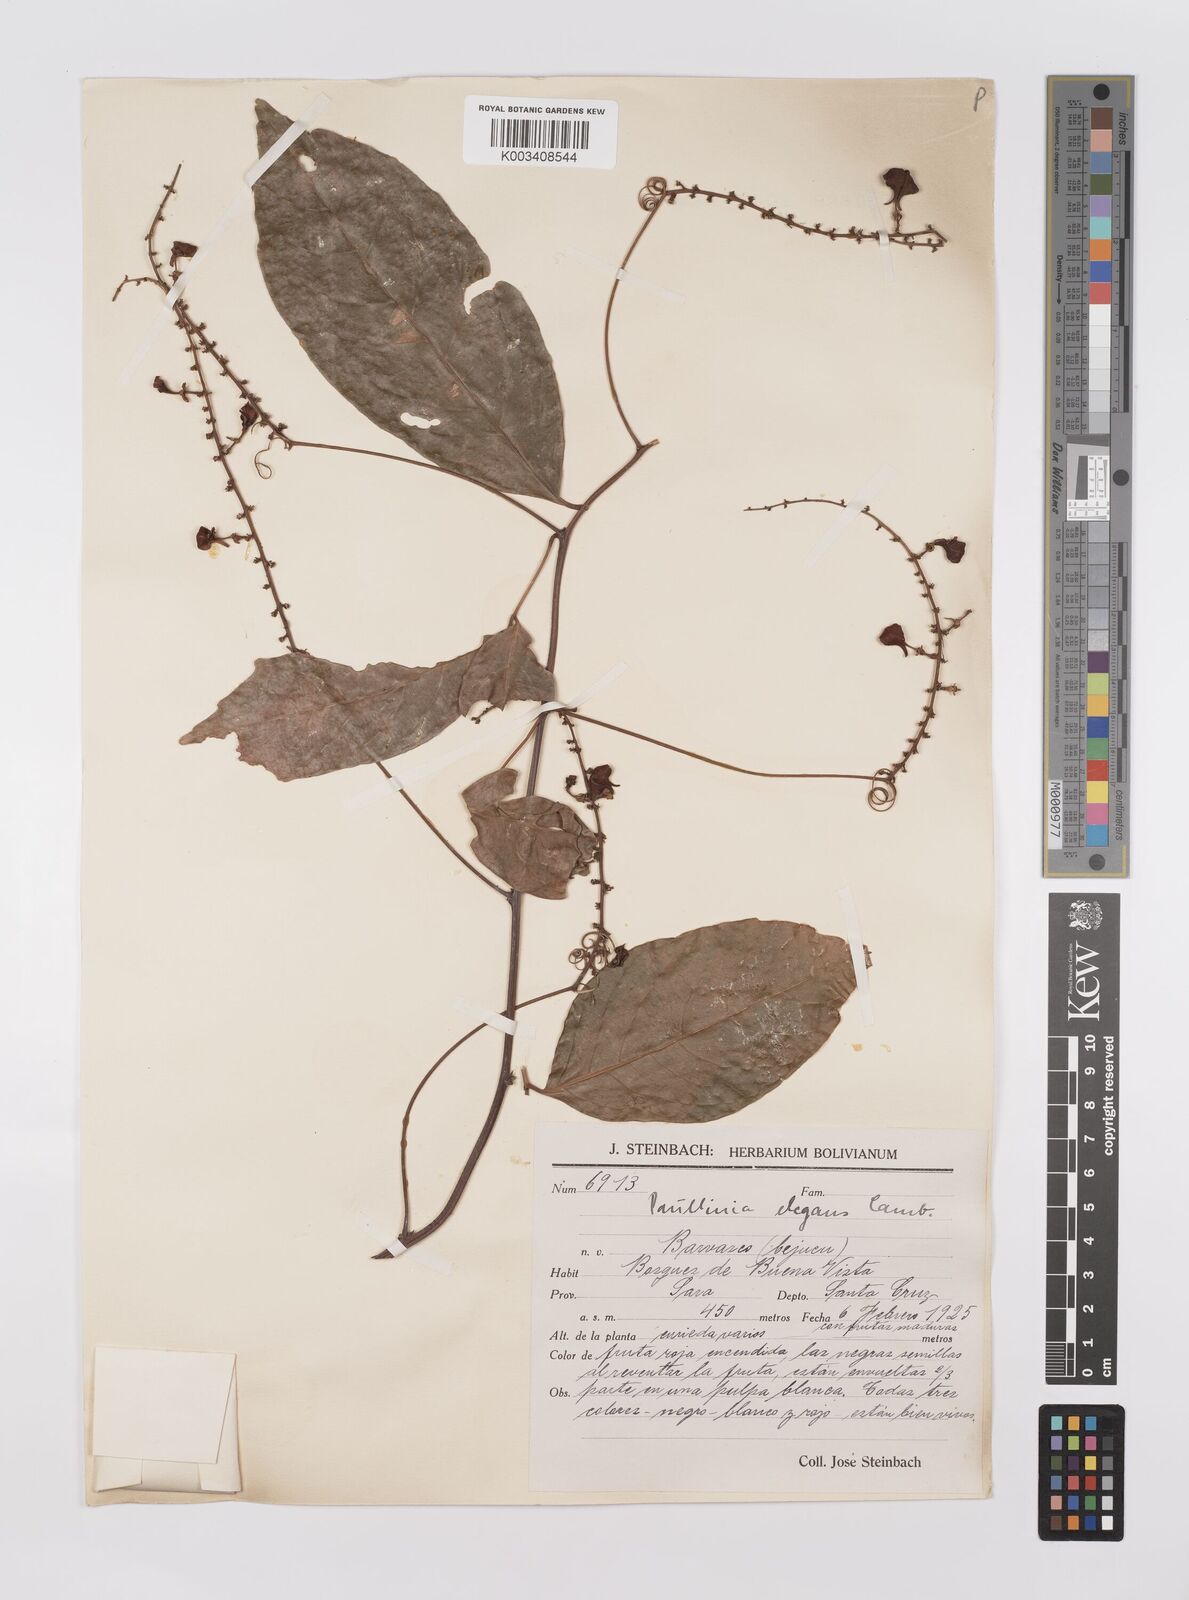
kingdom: Plantae
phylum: Tracheophyta
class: Magnoliopsida
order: Sapindales
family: Sapindaceae
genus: Paullinia
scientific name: Paullinia elegans
